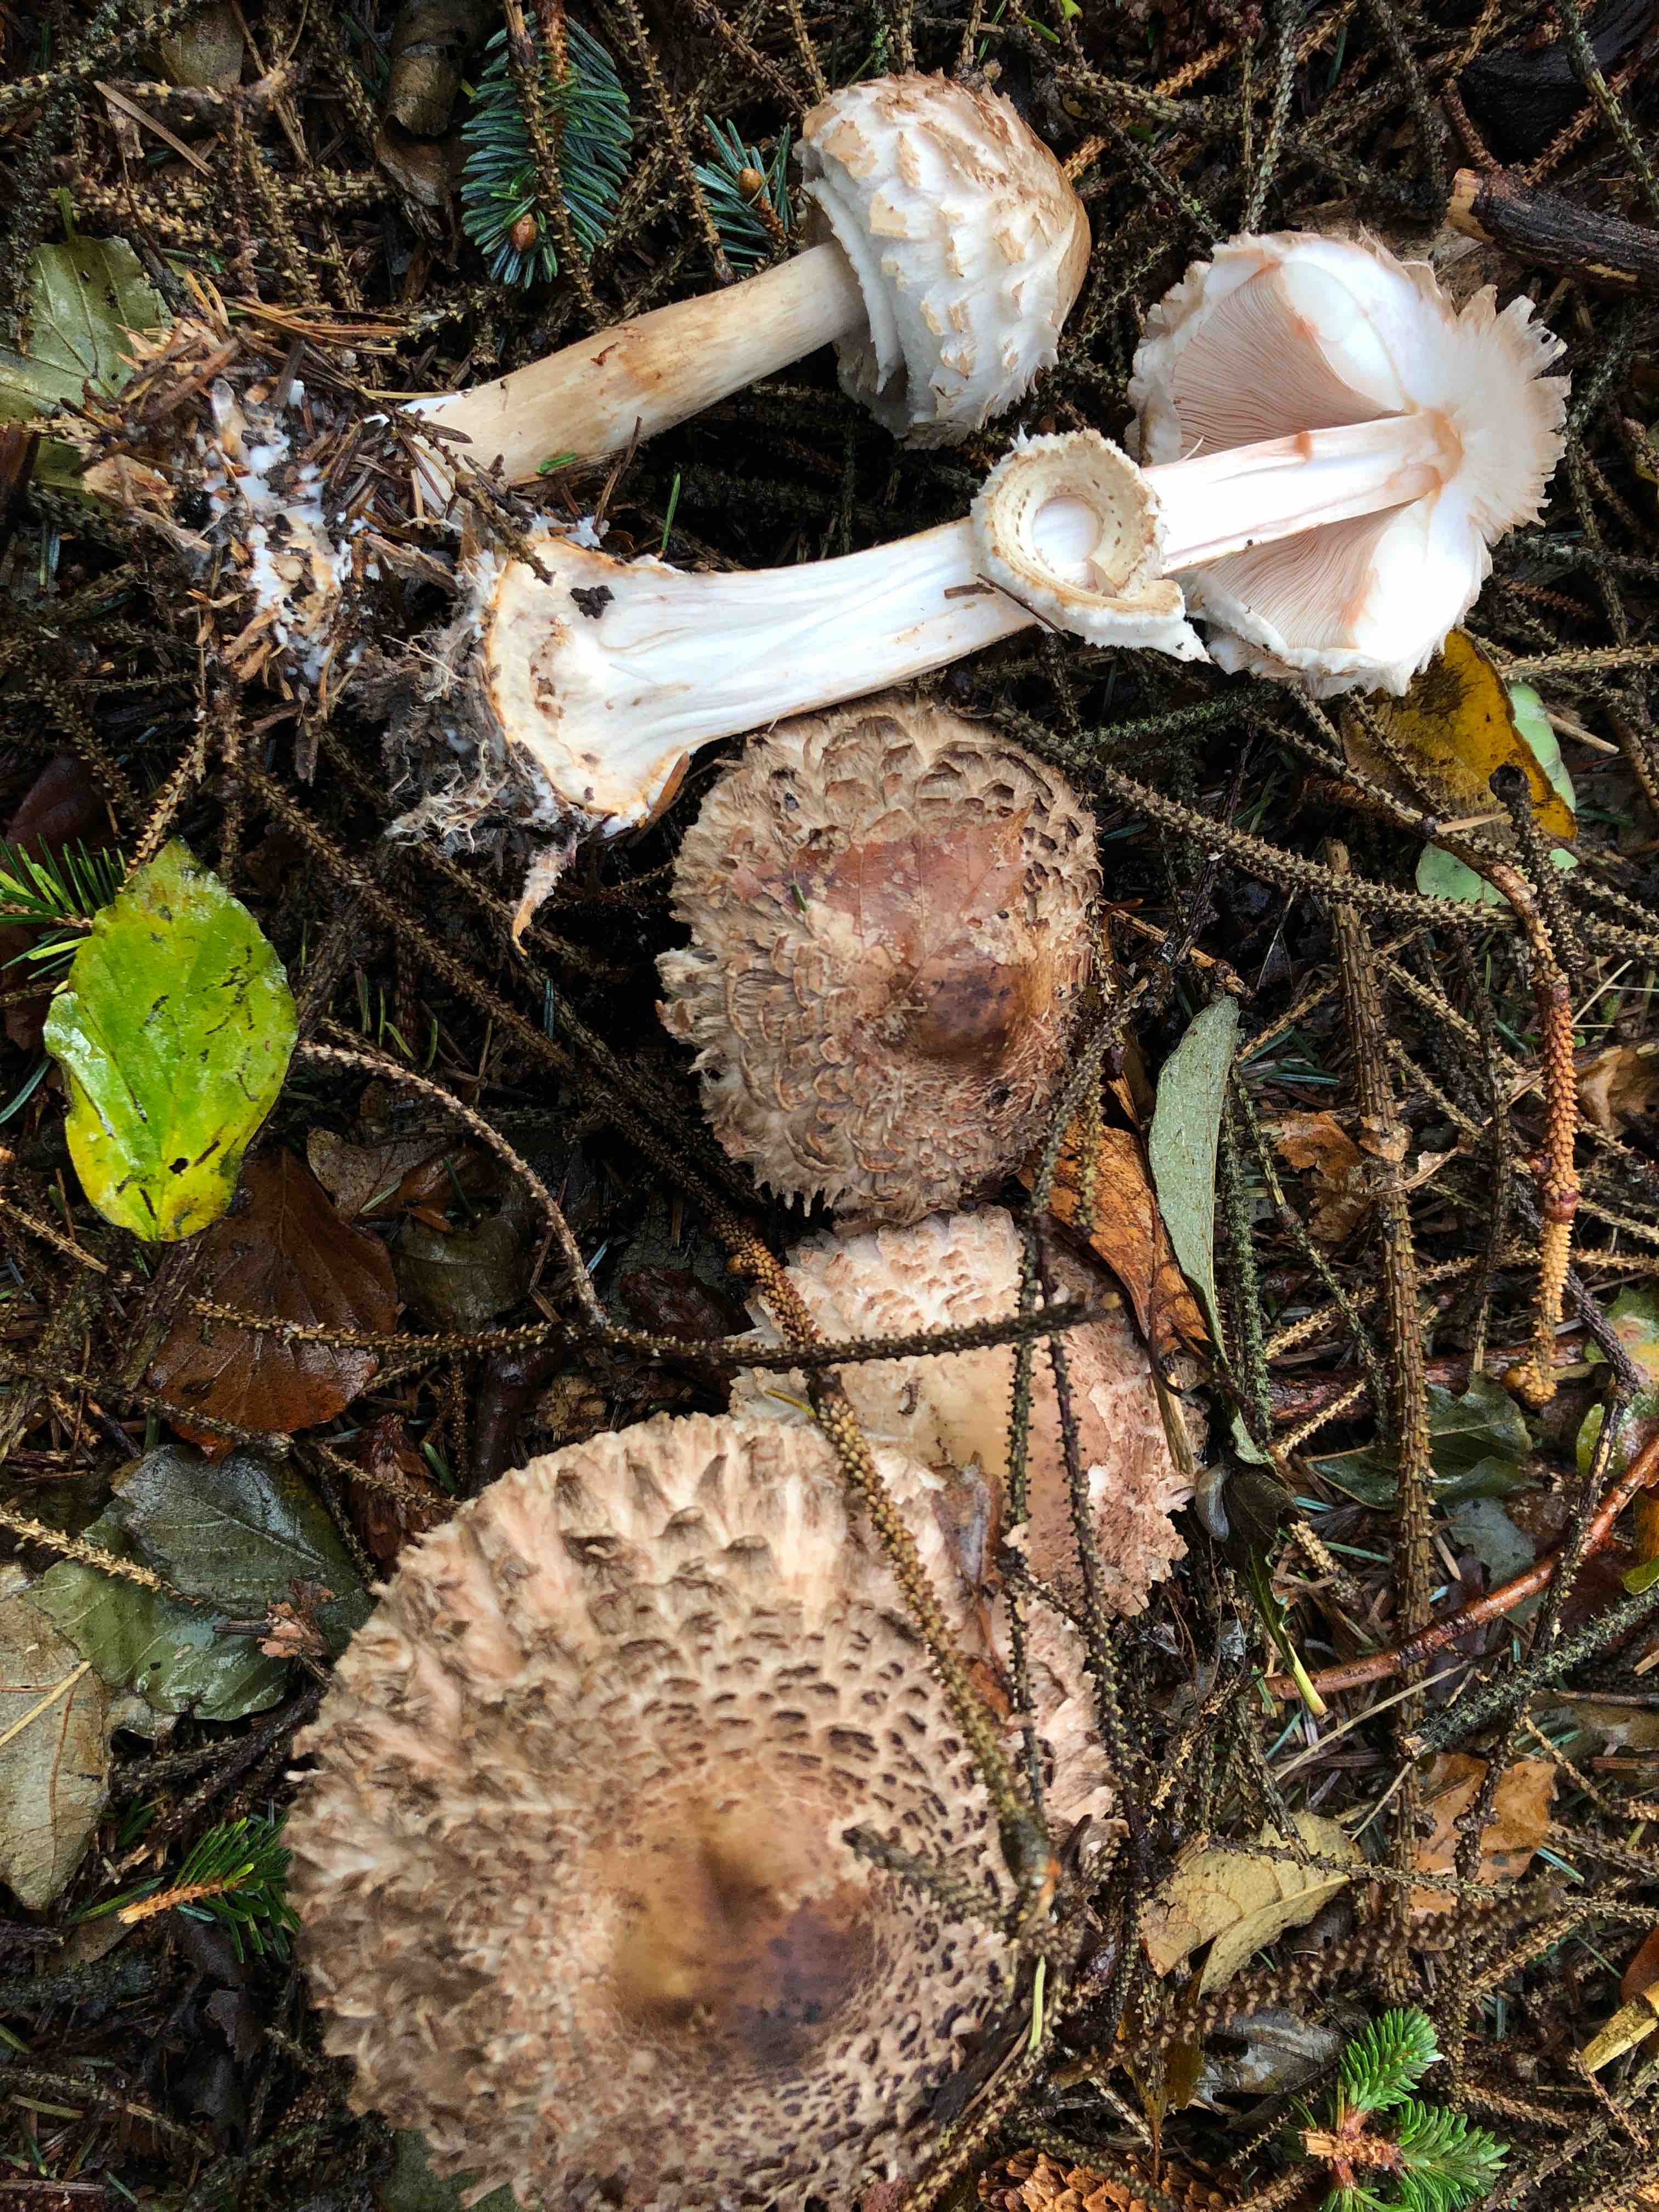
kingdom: Fungi
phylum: Basidiomycota
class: Agaricomycetes
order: Agaricales
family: Agaricaceae
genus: Chlorophyllum
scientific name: Chlorophyllum olivieri
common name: almindelig rabarberhat
